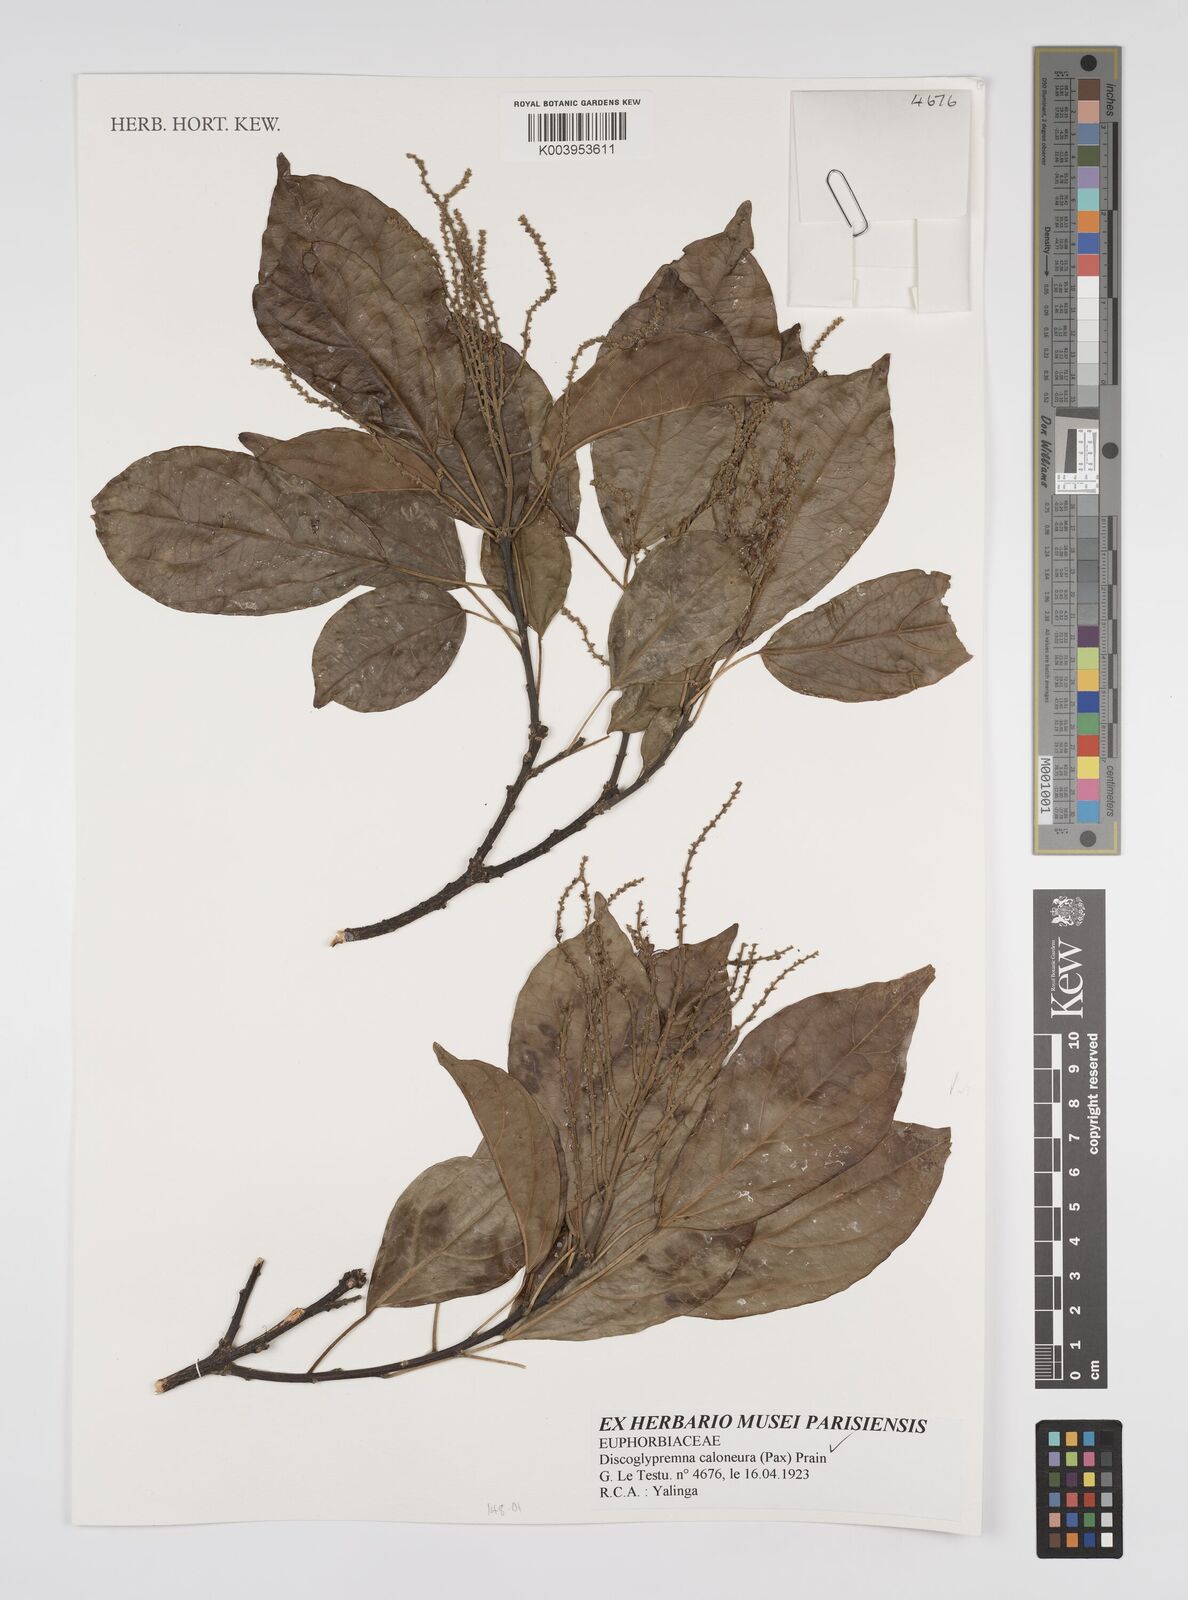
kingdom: Plantae
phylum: Tracheophyta
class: Magnoliopsida
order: Malpighiales
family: Euphorbiaceae
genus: Discoglypremna
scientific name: Discoglypremna caloneura
